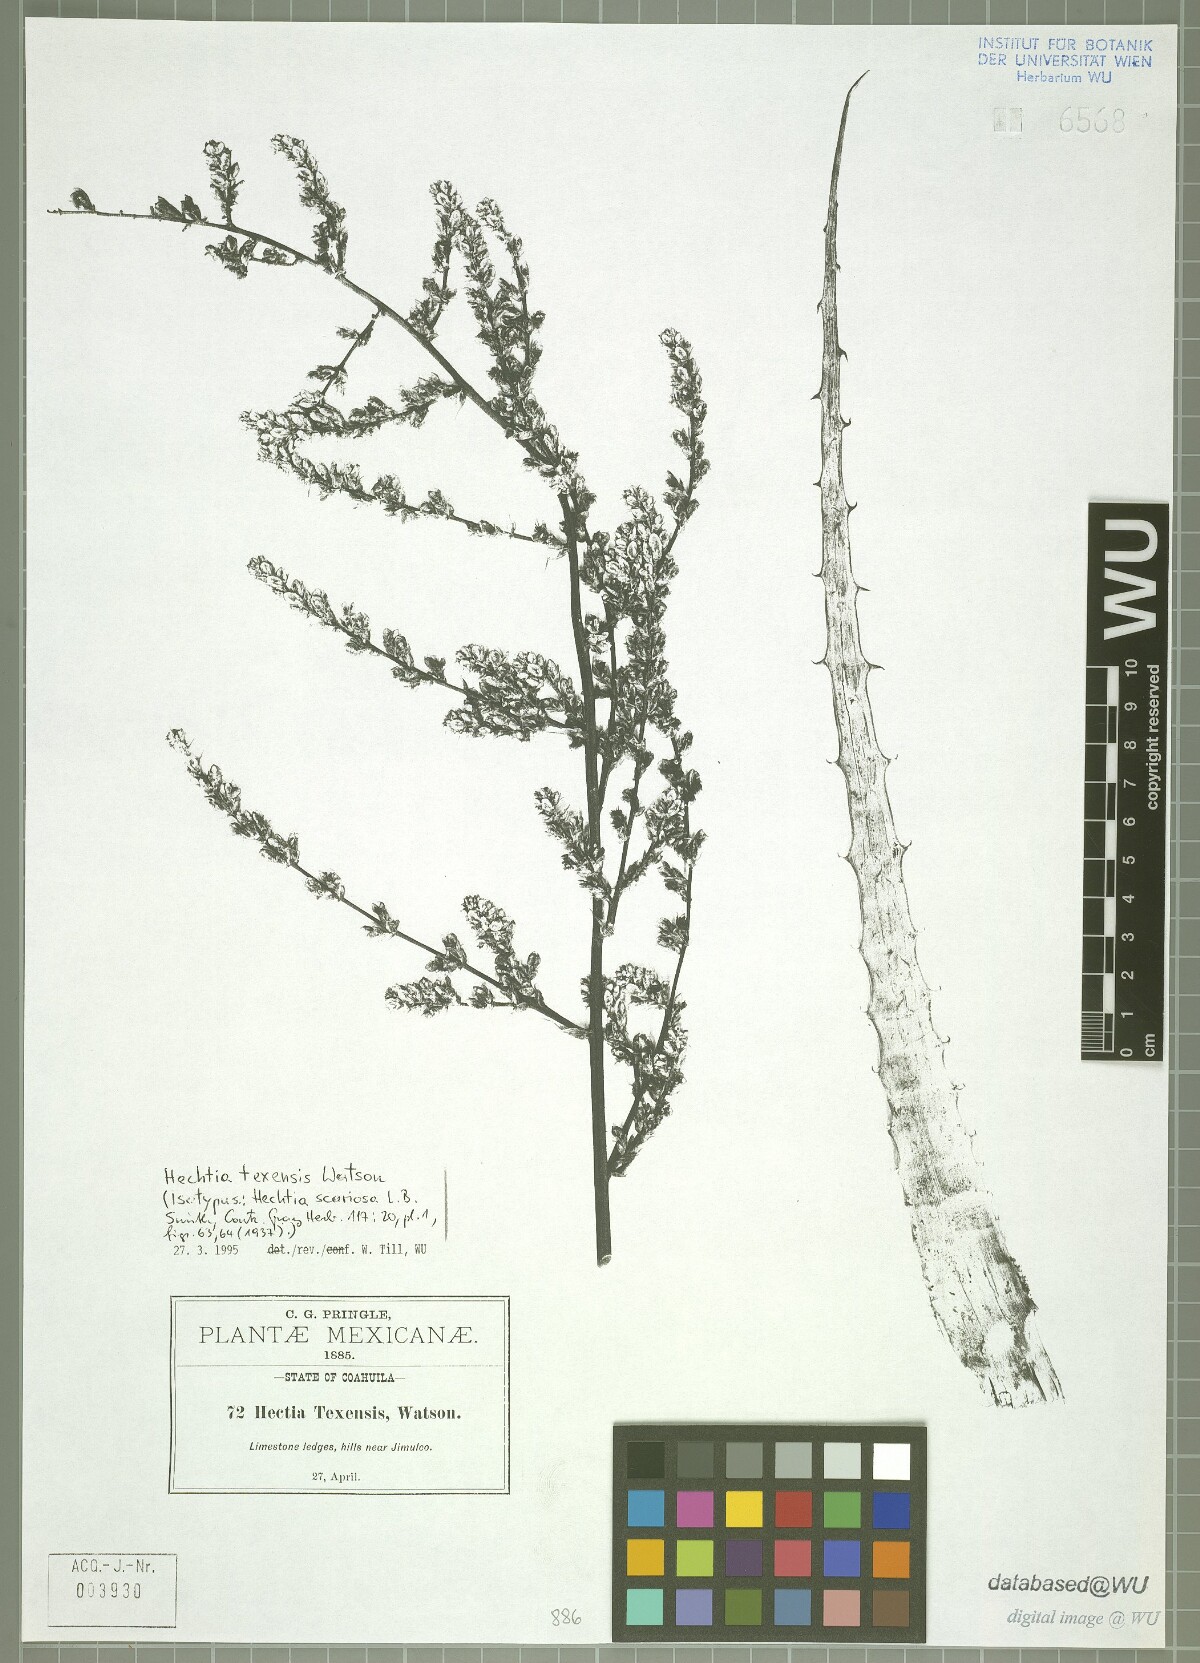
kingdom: Plantae
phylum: Tracheophyta
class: Liliopsida
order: Poales
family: Bromeliaceae
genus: Hechtia
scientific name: Hechtia texensis
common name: False agave
